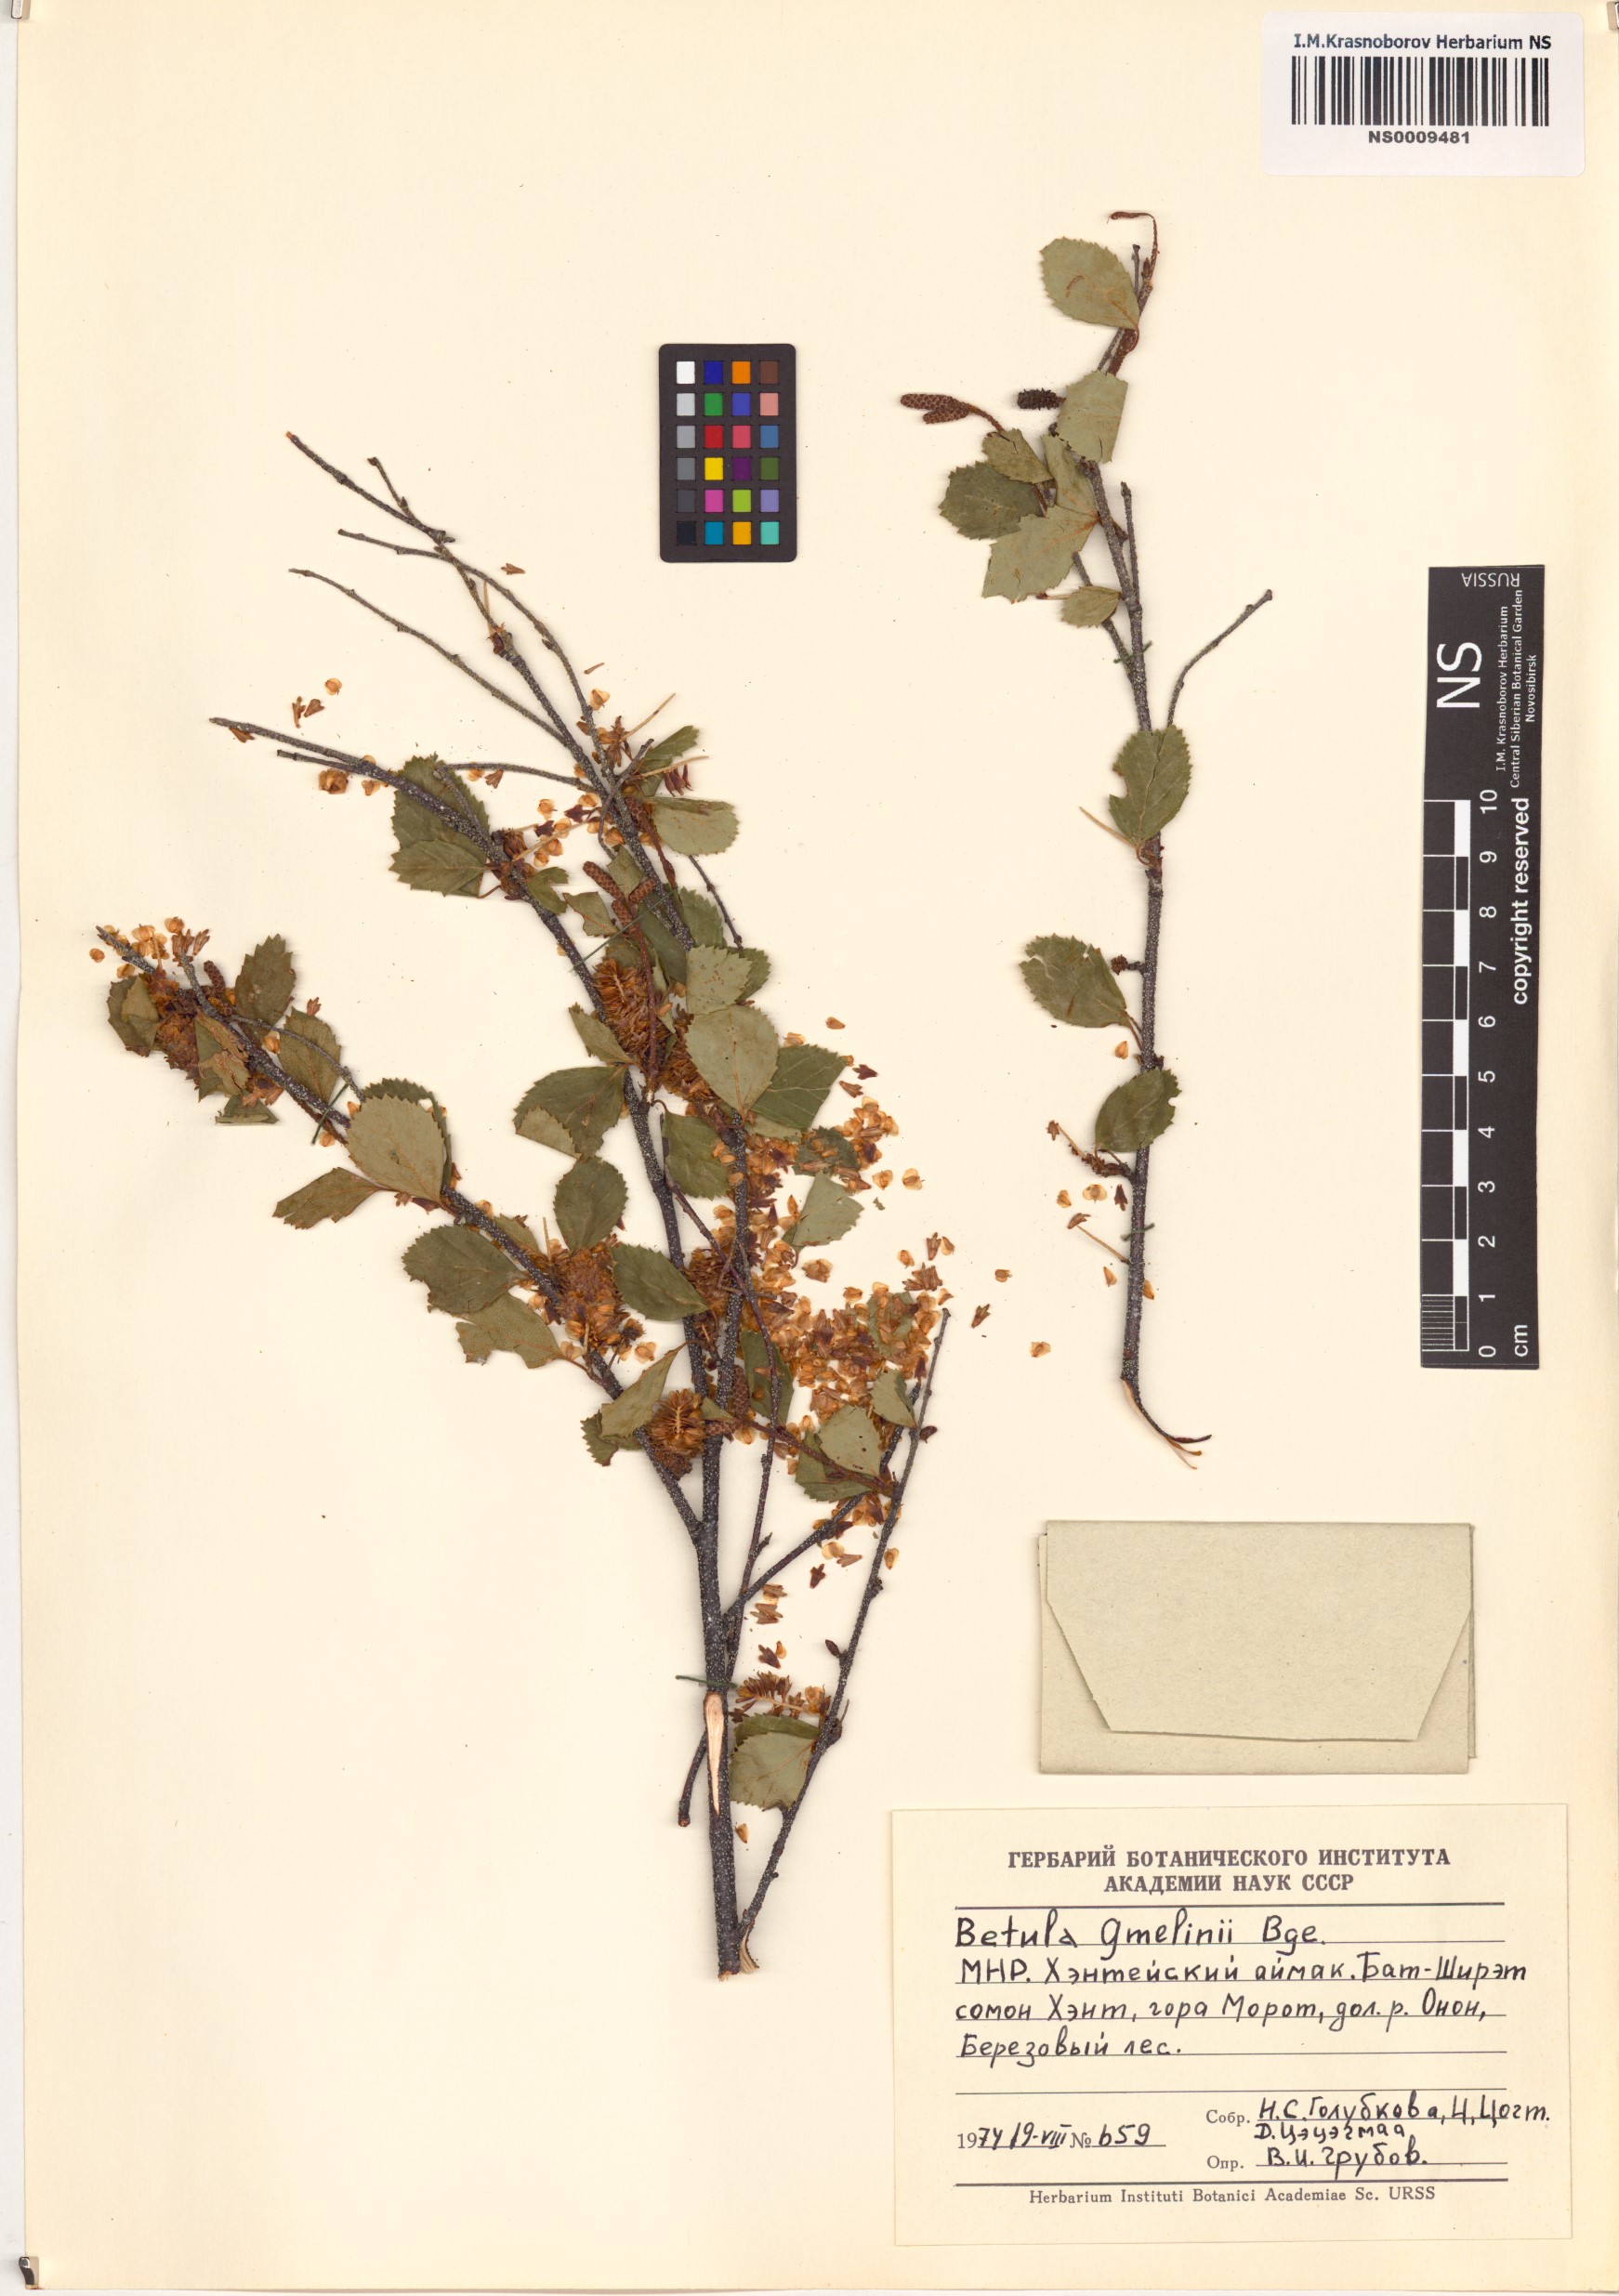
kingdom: Plantae
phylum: Tracheophyta
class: Magnoliopsida
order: Fagales
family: Betulaceae
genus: Betula
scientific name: Betula gmelinii
